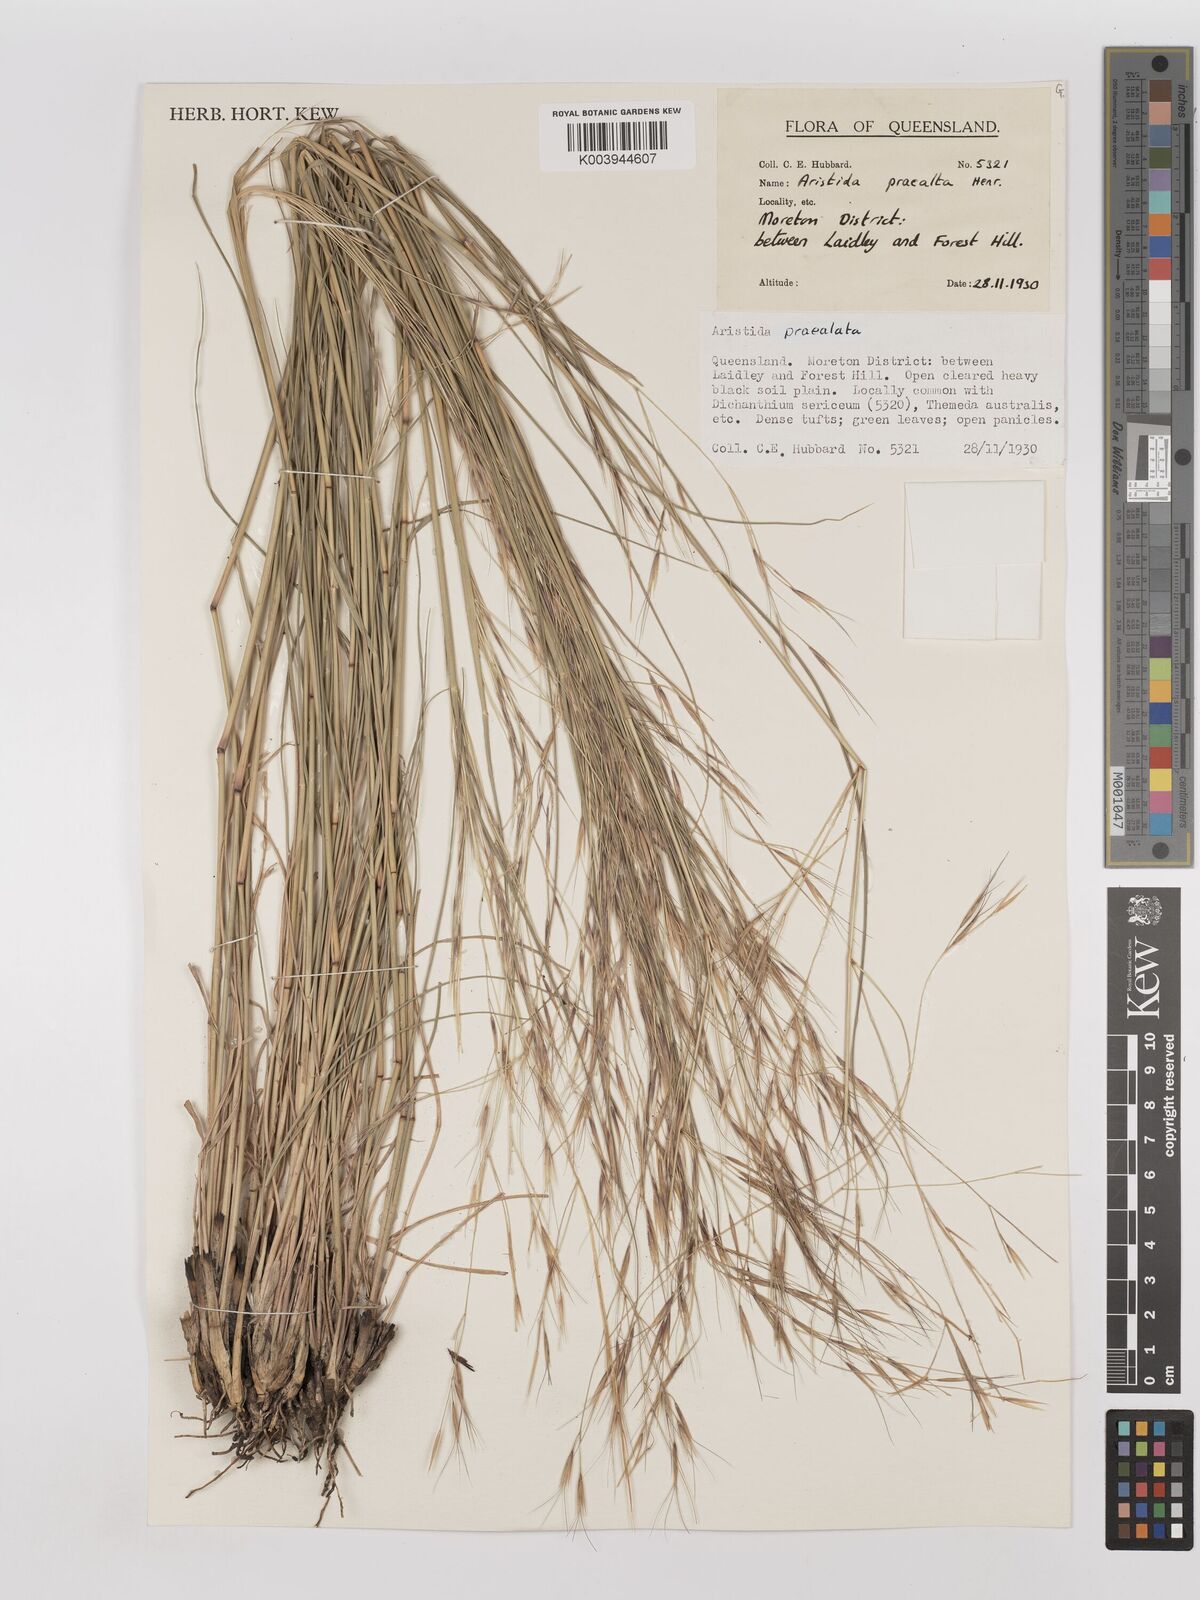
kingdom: Plantae
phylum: Tracheophyta
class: Liliopsida
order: Poales
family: Poaceae
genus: Aristida
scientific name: Aristida calycina
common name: Dark wire grass
